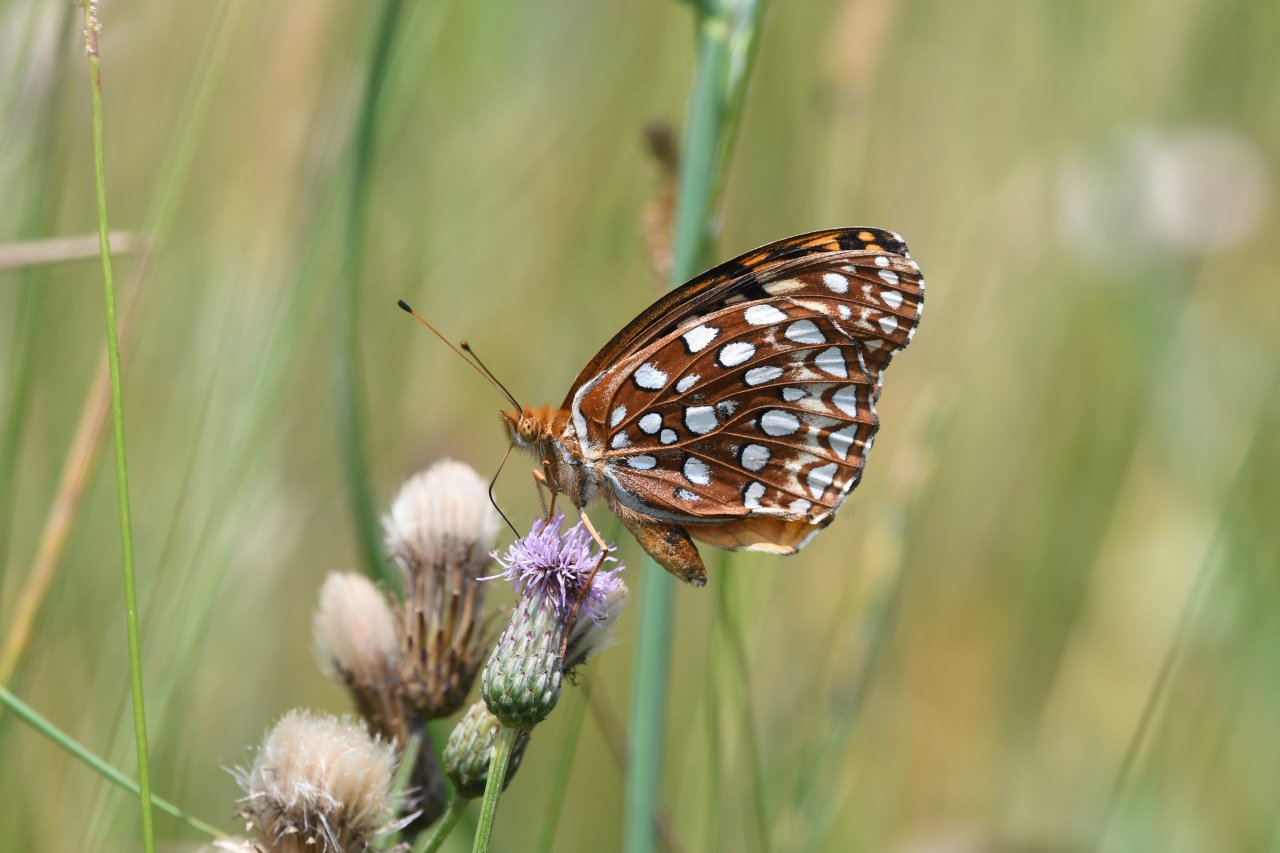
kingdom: Animalia
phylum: Arthropoda
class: Insecta
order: Lepidoptera
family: Nymphalidae
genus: Speyeria
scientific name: Speyeria aphrodite
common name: Aphrodite Fritillary
